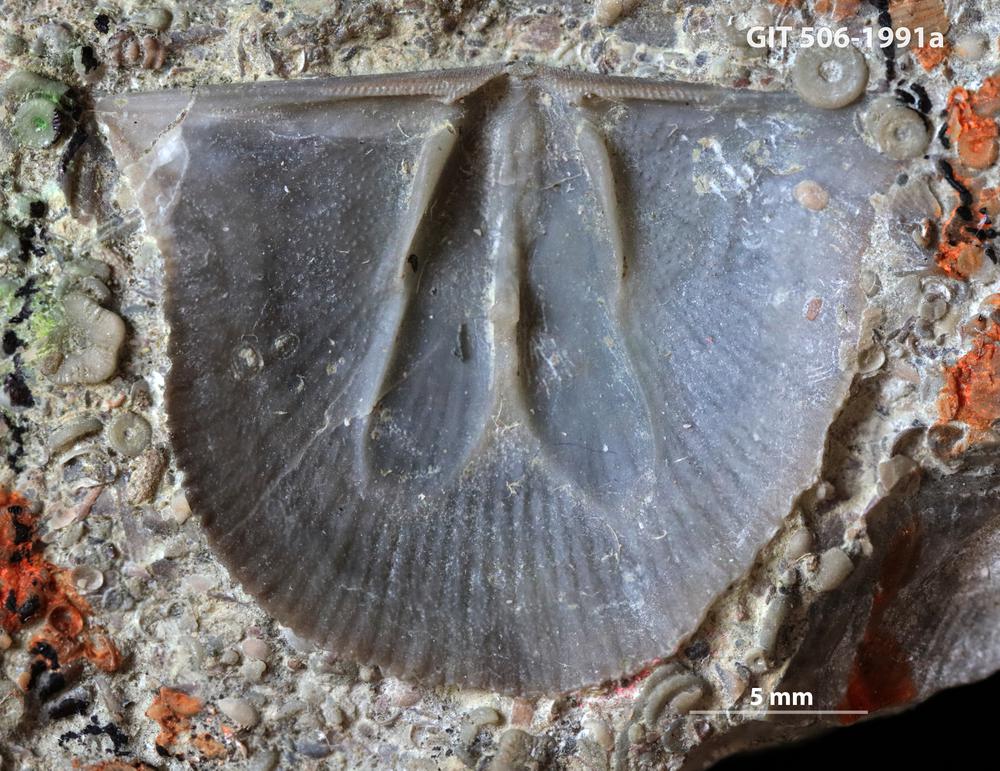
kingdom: Animalia
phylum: Brachiopoda
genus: Janiomya
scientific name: Janiomya Strophomena ornatella
